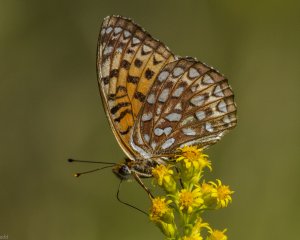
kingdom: Animalia
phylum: Arthropoda
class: Insecta
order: Lepidoptera
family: Nymphalidae
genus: Speyeria
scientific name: Speyeria atlantis
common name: Atlantis Fritillary
